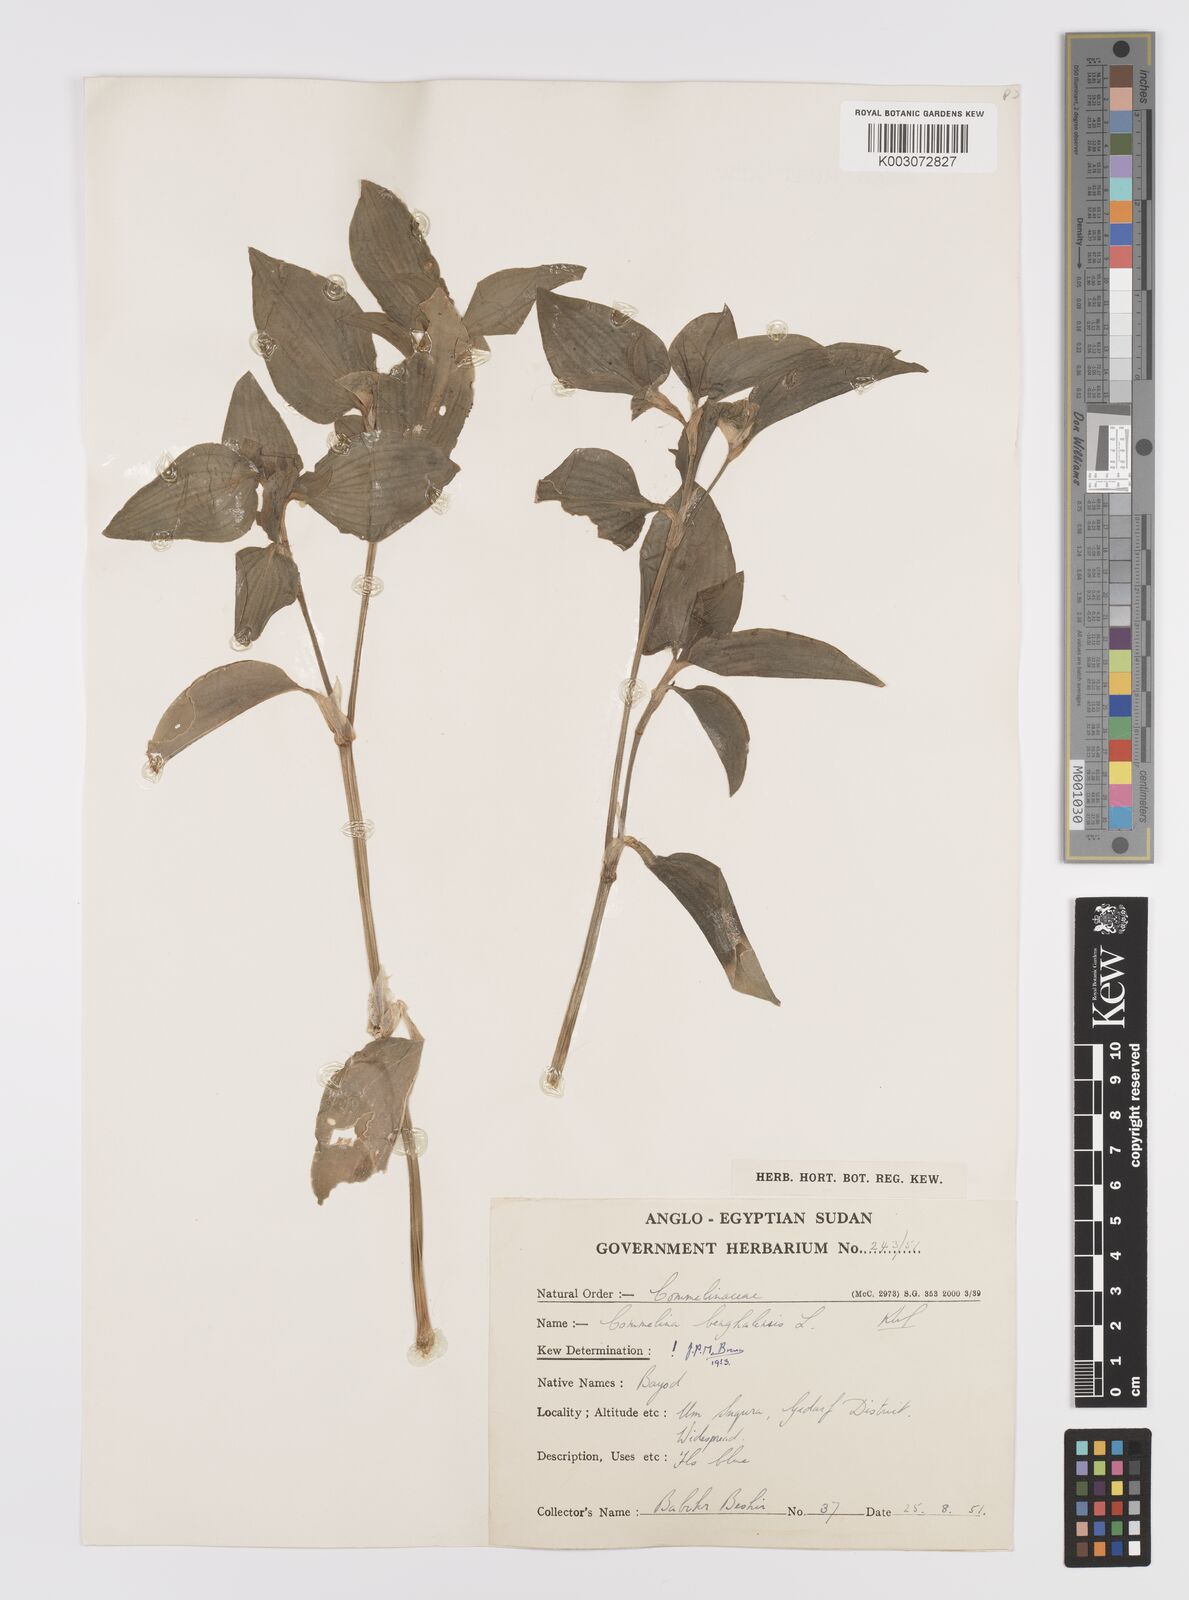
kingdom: Plantae
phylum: Tracheophyta
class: Liliopsida
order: Commelinales
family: Commelinaceae
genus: Commelina
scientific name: Commelina benghalensis
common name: Jio
